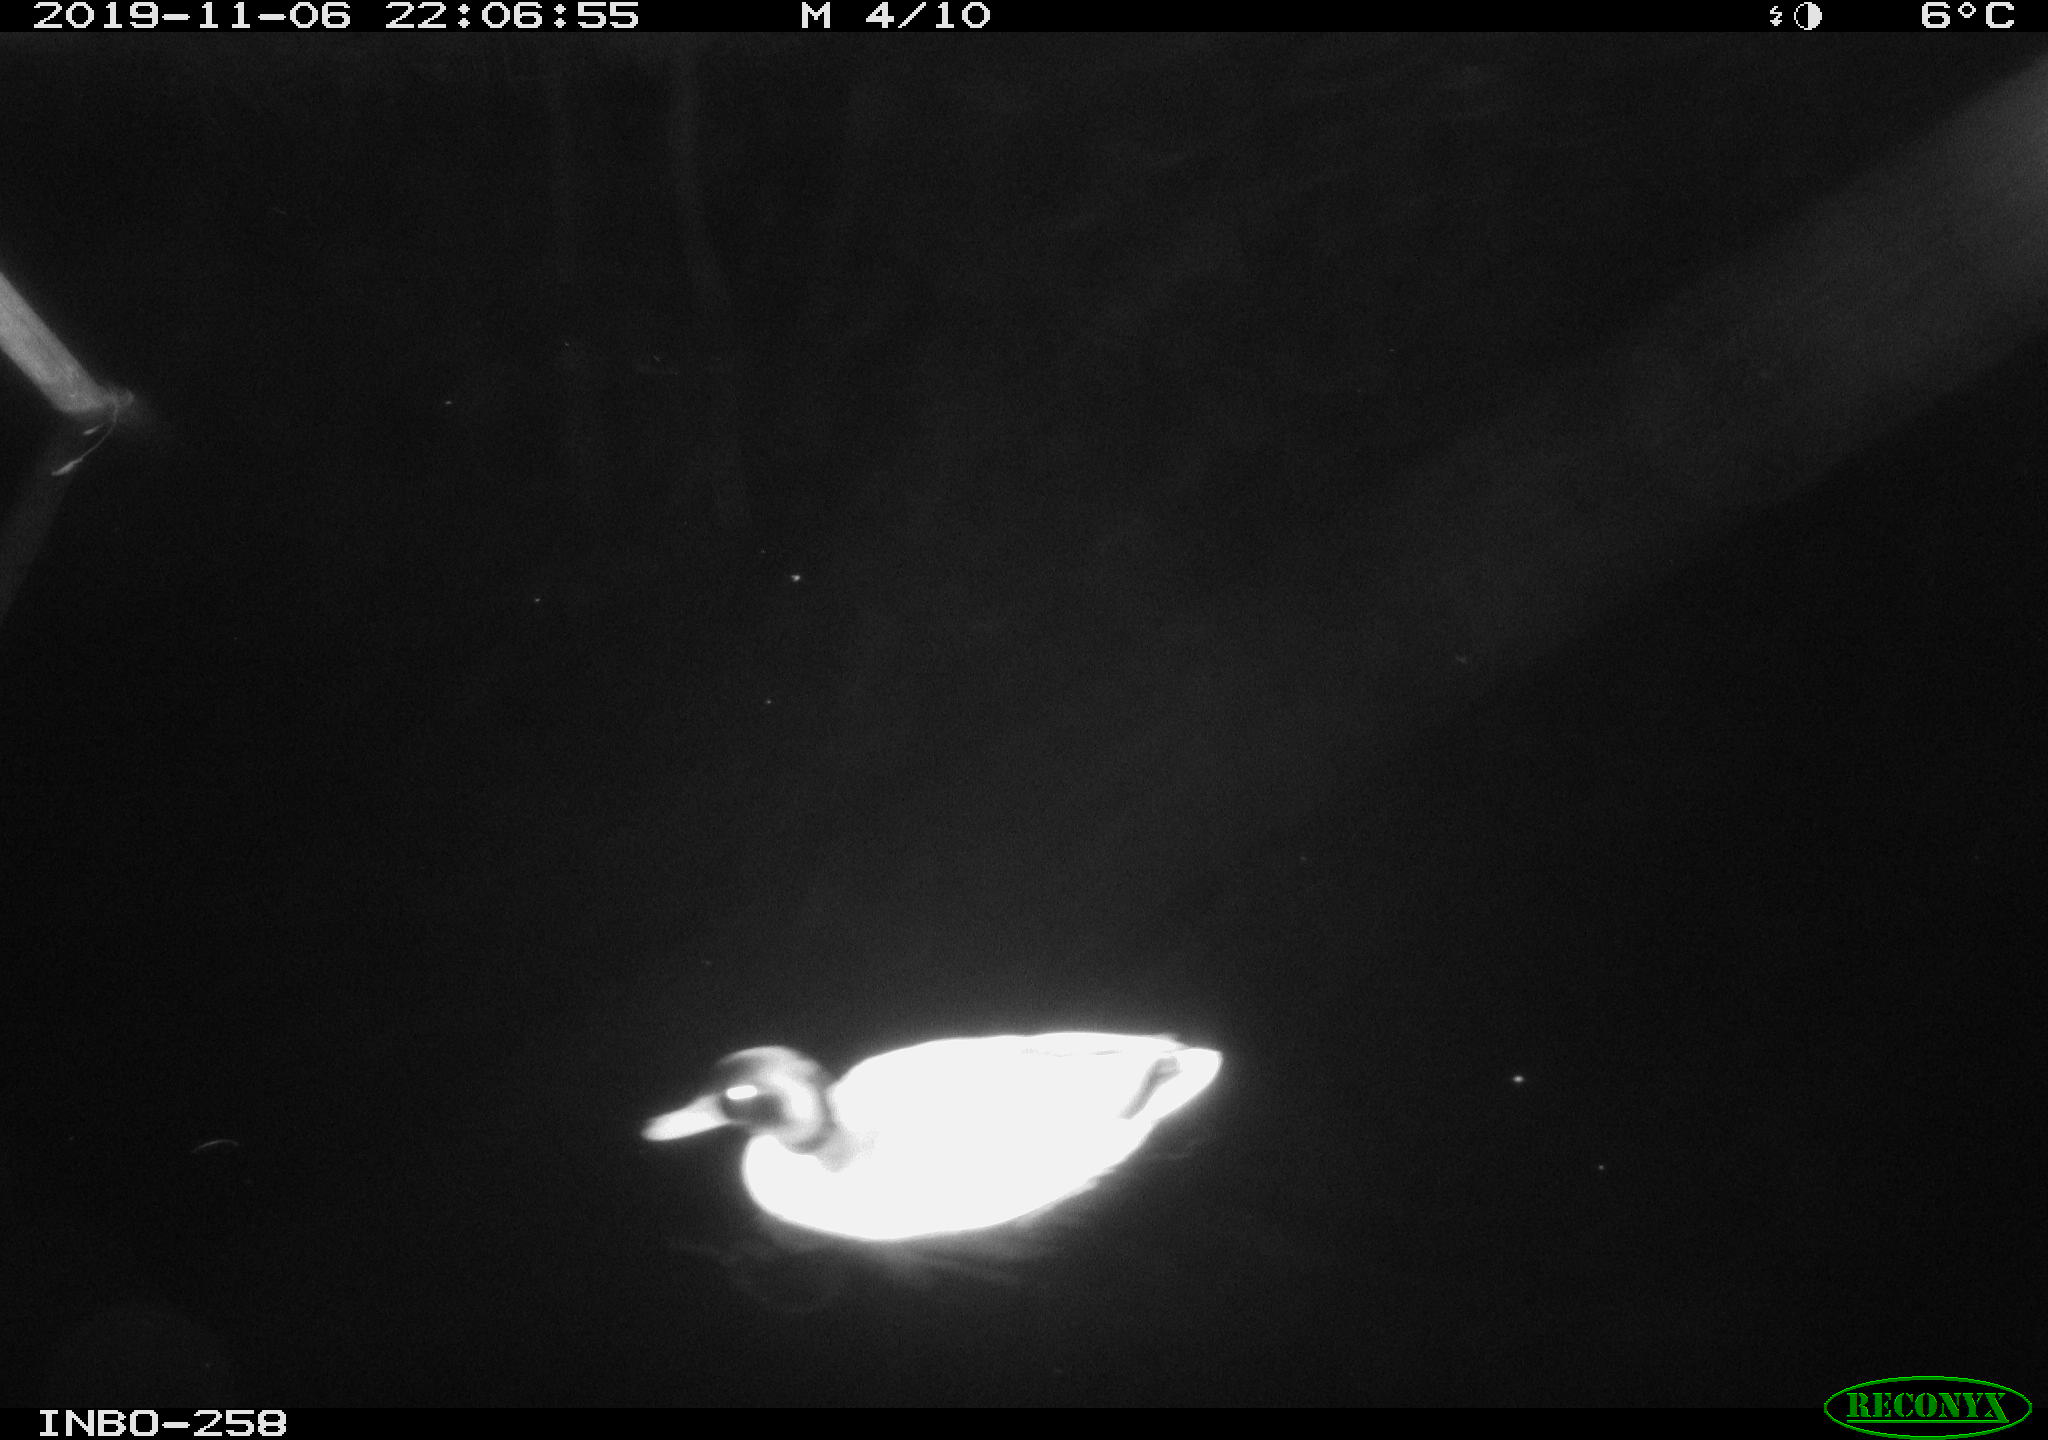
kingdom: Animalia
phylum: Chordata
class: Aves
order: Anseriformes
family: Anatidae
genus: Anas
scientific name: Anas platyrhynchos
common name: Mallard
